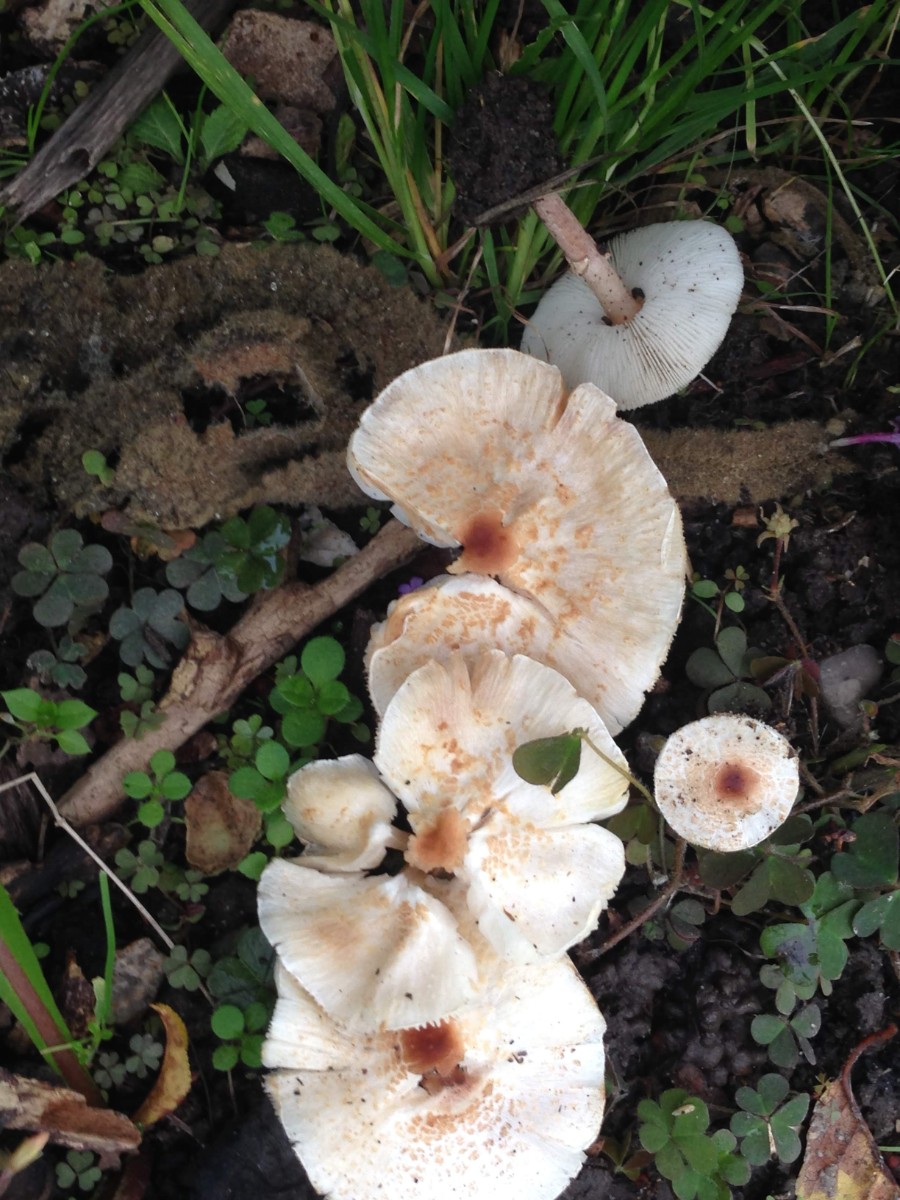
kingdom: Fungi
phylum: Basidiomycota
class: Agaricomycetes
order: Agaricales
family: Agaricaceae
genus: Lepiota
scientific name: Lepiota cristata
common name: stinkende parasolhat
